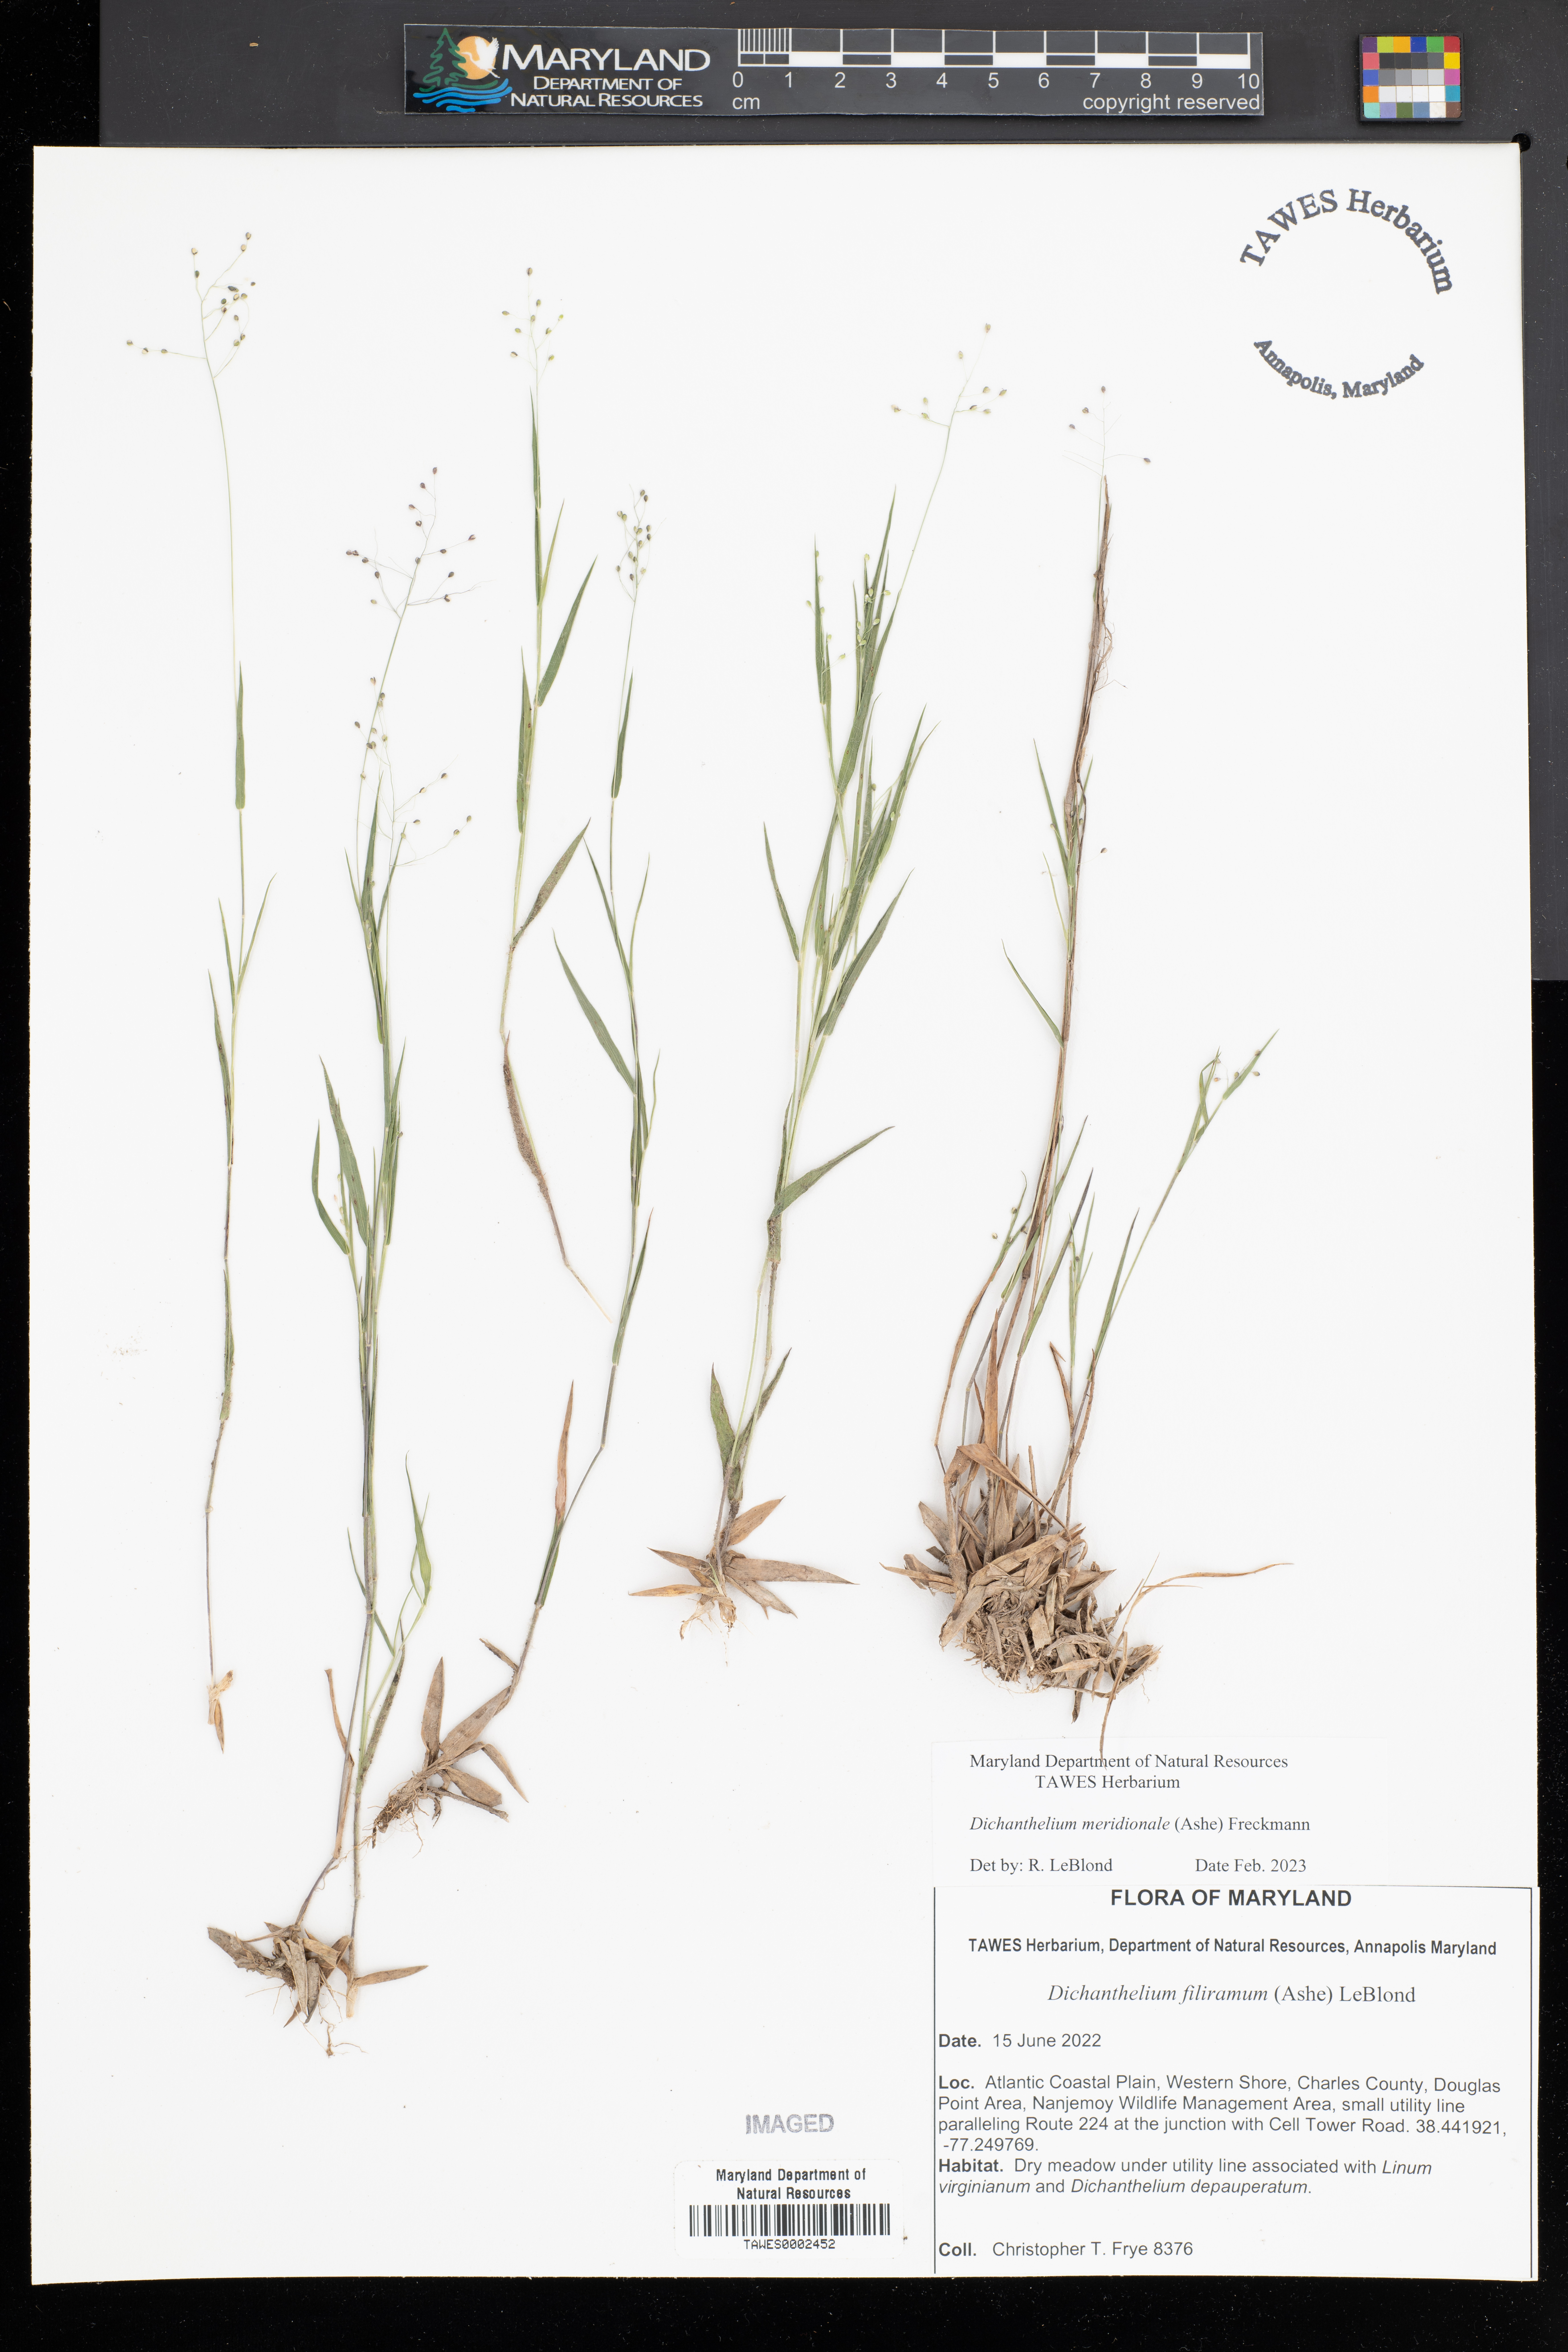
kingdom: Plantae
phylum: Tracheophyta
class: Liliopsida
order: Poales
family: Poaceae
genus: Dichanthelium
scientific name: Dichanthelium meridionale
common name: Mat panicgrass
